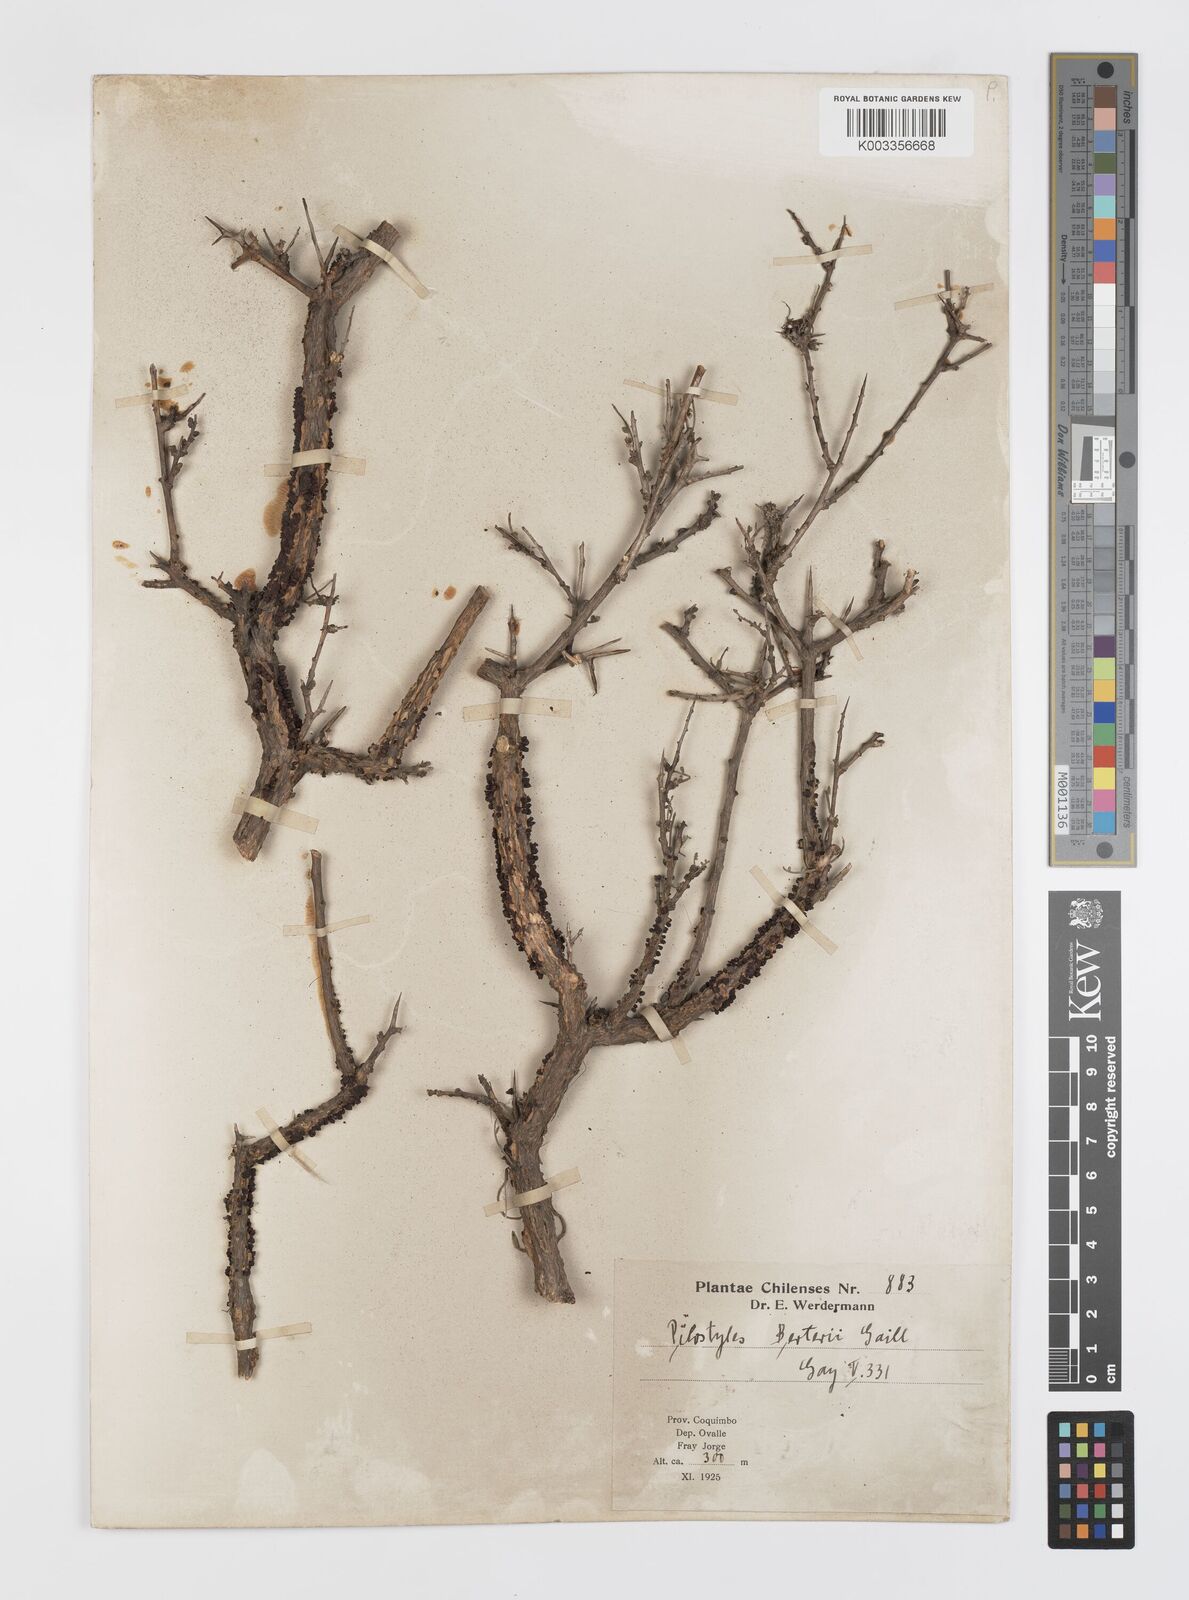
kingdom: Plantae
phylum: Tracheophyta
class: Magnoliopsida
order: Cucurbitales
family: Apodanthaceae
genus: Pilostyles
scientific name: Pilostyles berteroi
